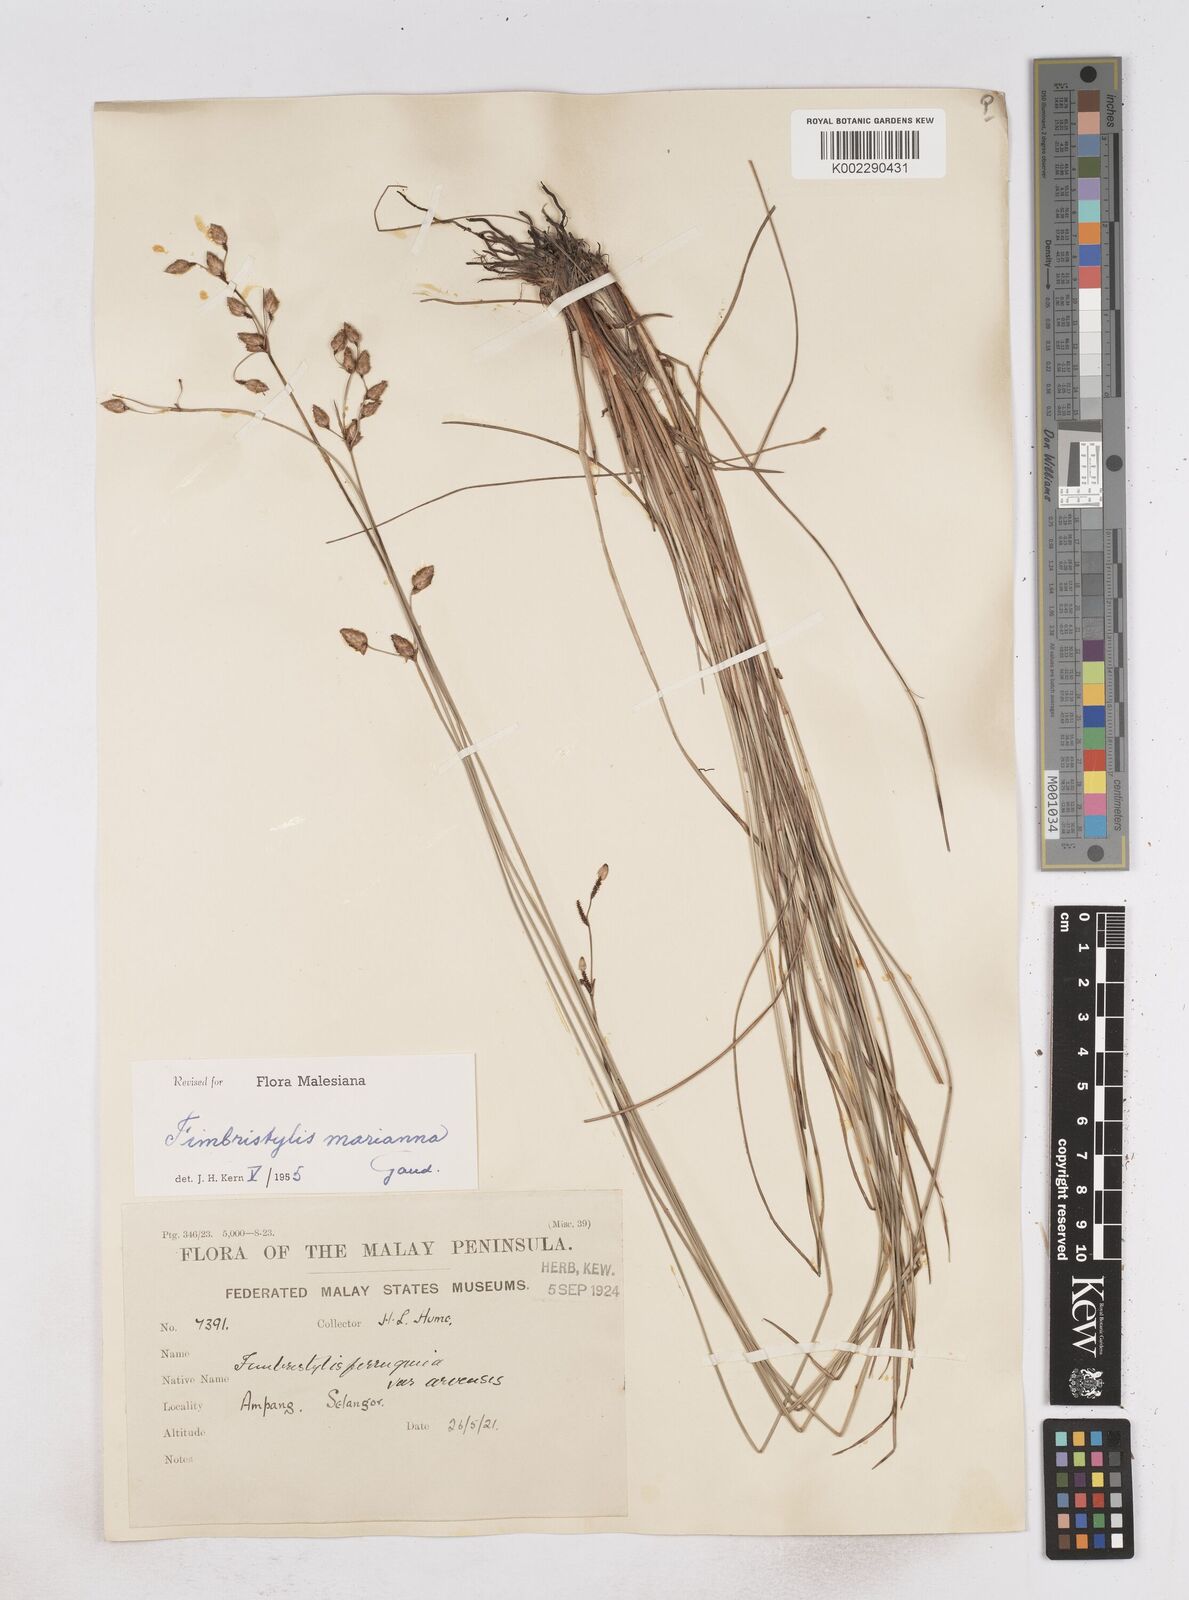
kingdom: Plantae
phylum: Tracheophyta
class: Liliopsida
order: Poales
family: Cyperaceae
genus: Fimbristylis
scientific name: Fimbristylis tristachya
